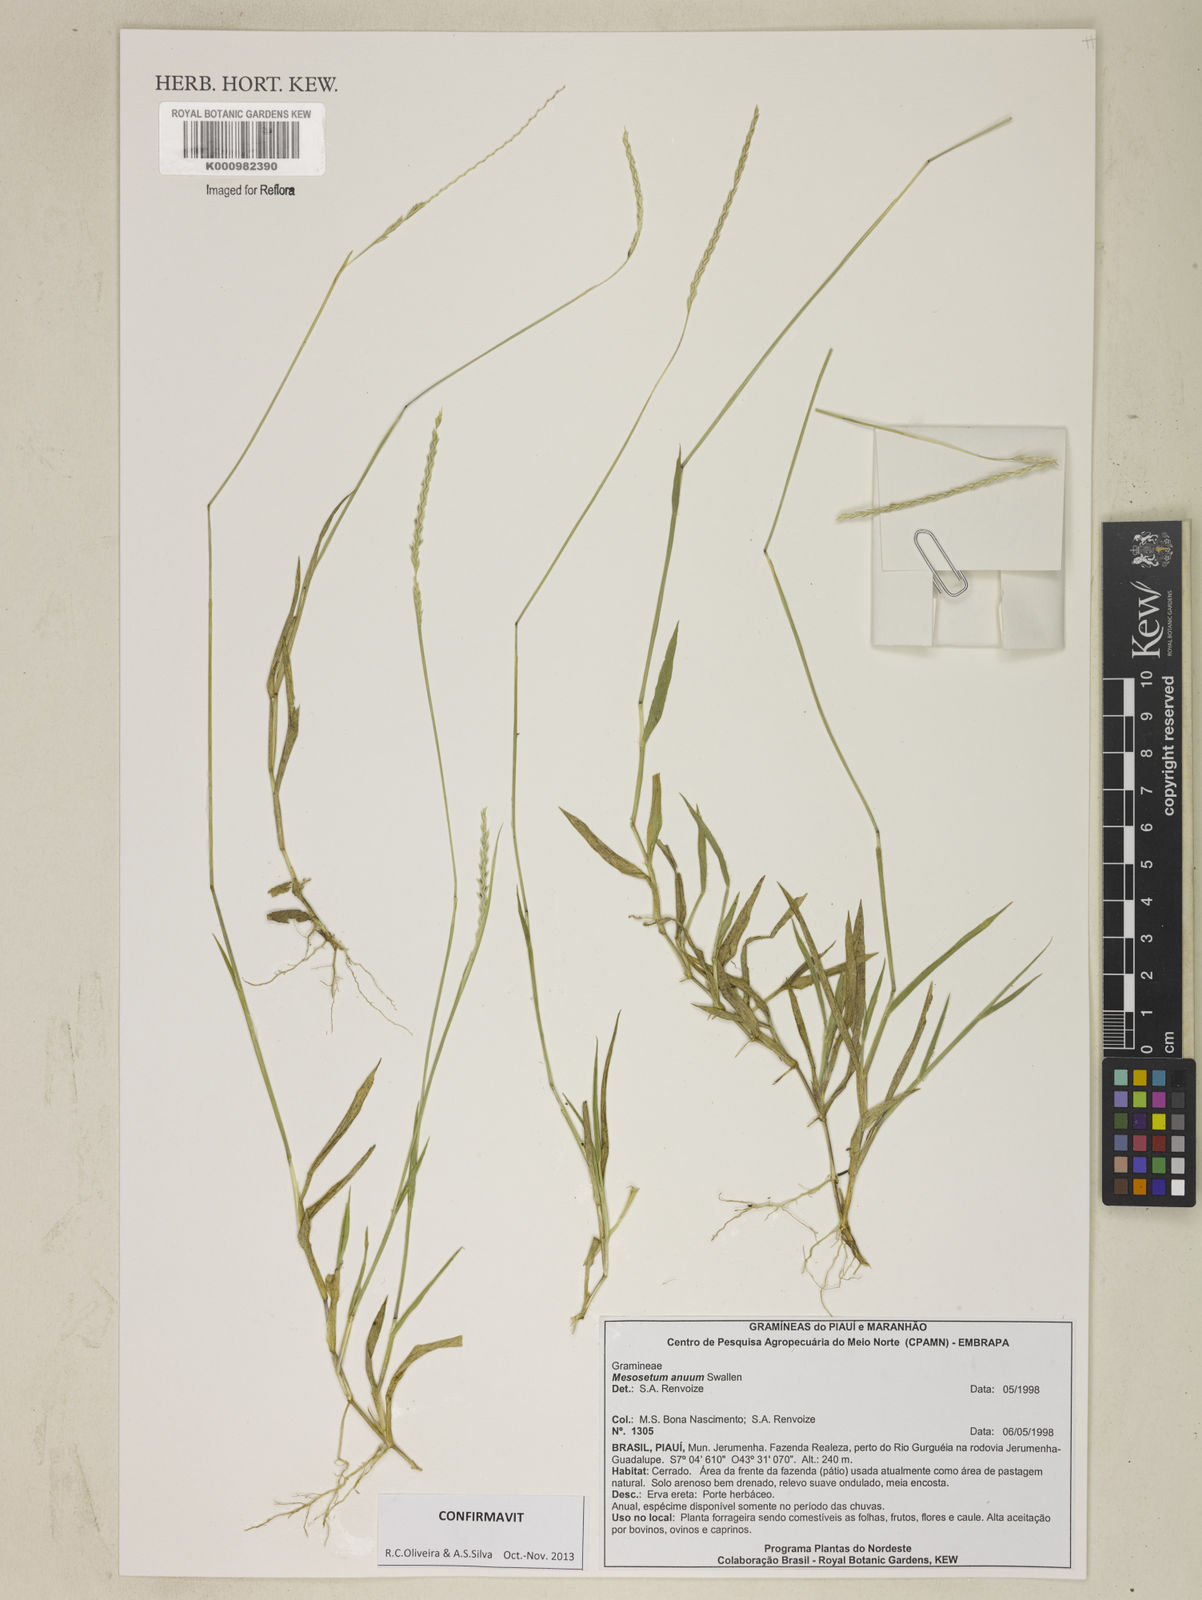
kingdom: Plantae
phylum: Tracheophyta
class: Liliopsida
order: Poales
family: Poaceae
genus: Mesosetum
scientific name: Mesosetum annuum
